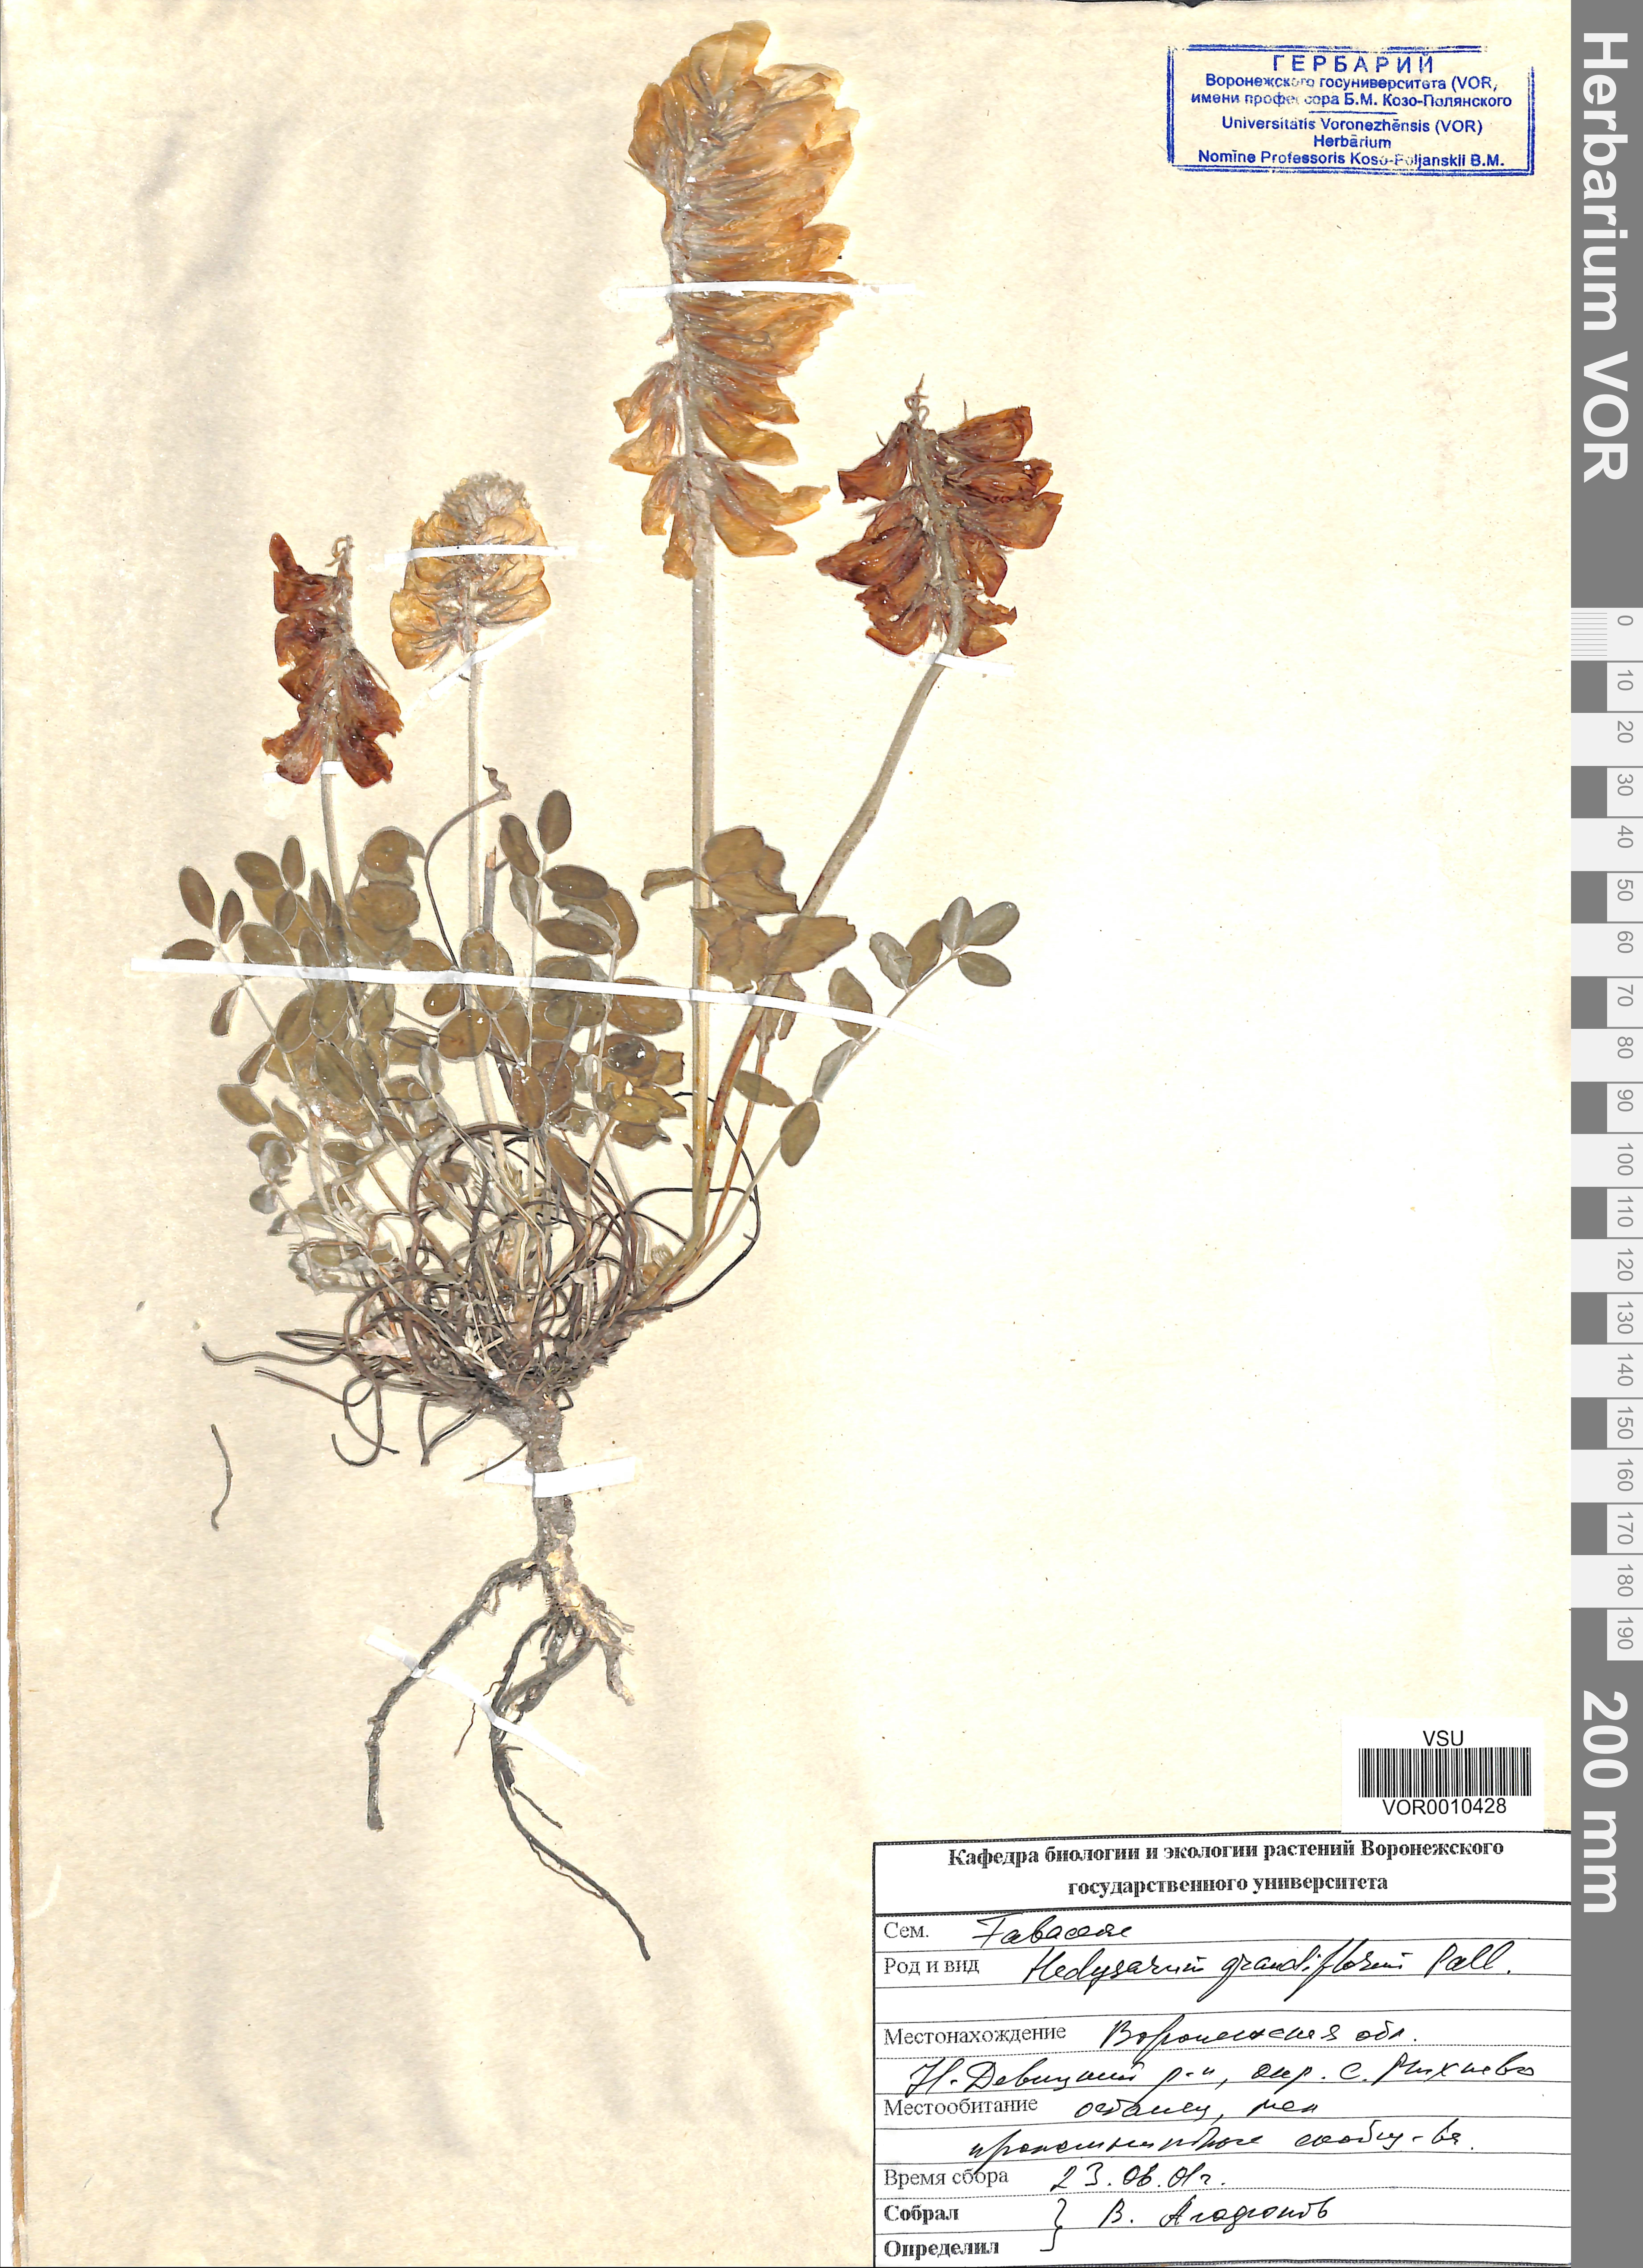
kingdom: Plantae
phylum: Tracheophyta
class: Magnoliopsida
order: Fabales
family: Fabaceae
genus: Hedysarum
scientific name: Hedysarum grandiflorum
